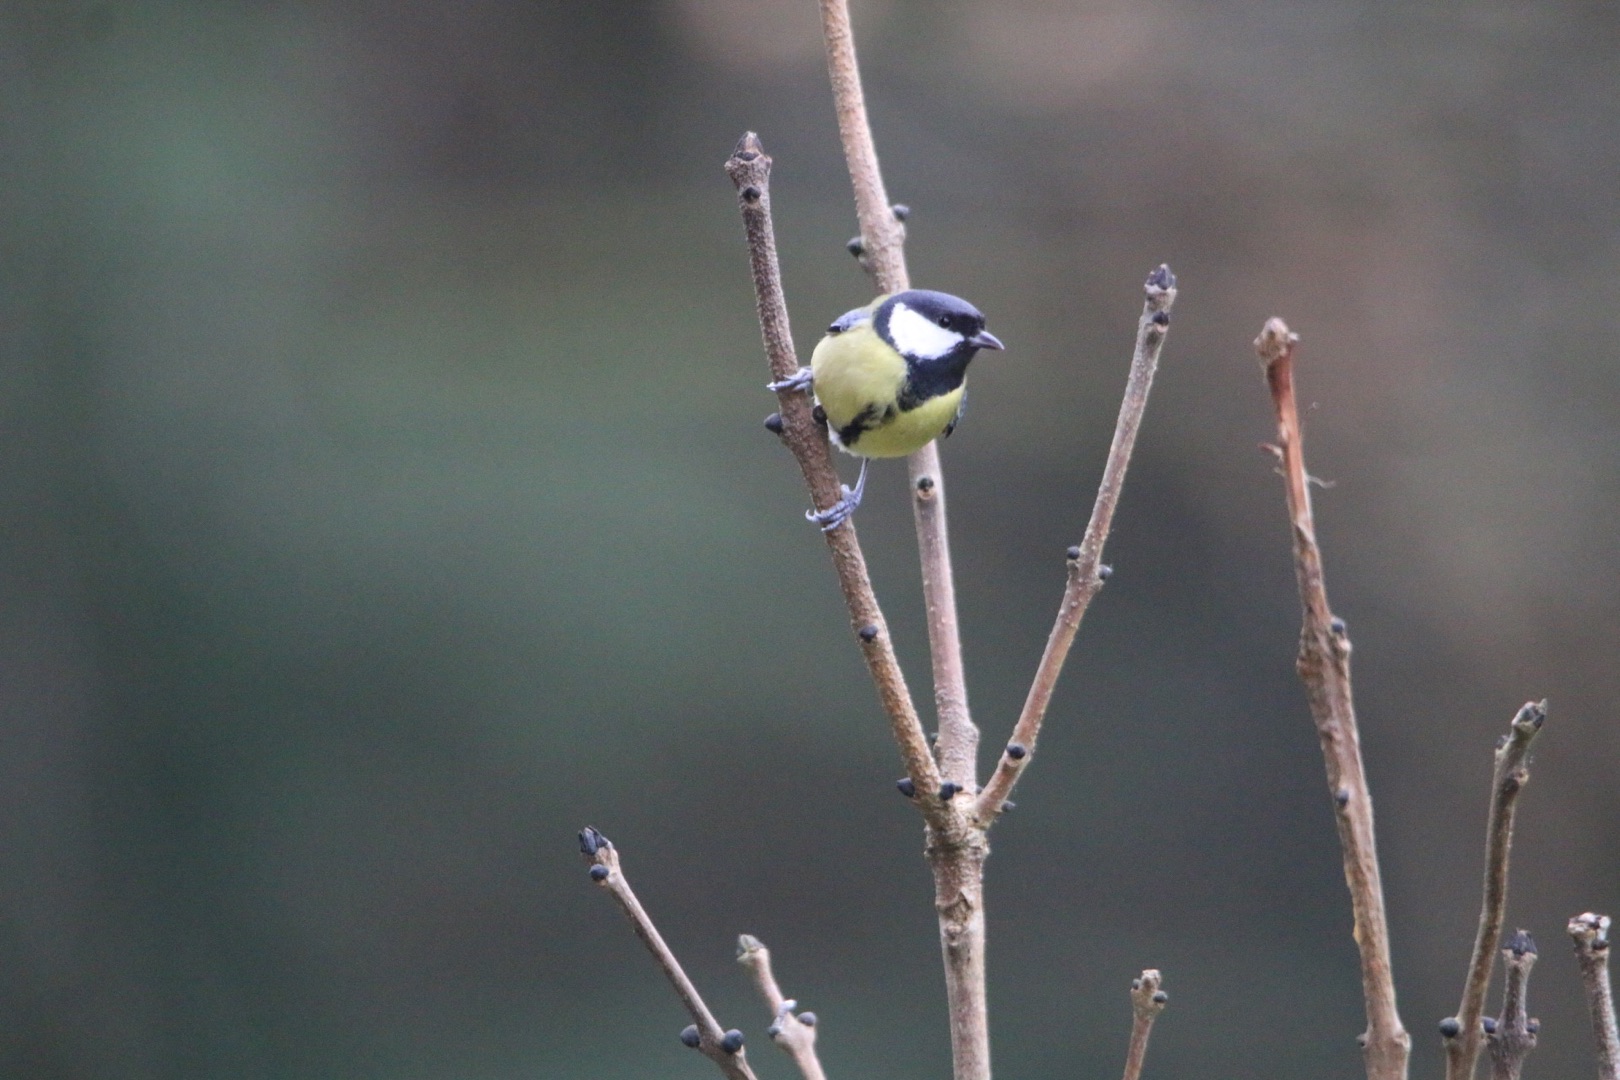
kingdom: Animalia
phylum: Chordata
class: Aves
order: Passeriformes
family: Paridae
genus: Parus
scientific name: Parus major
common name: Musvit
